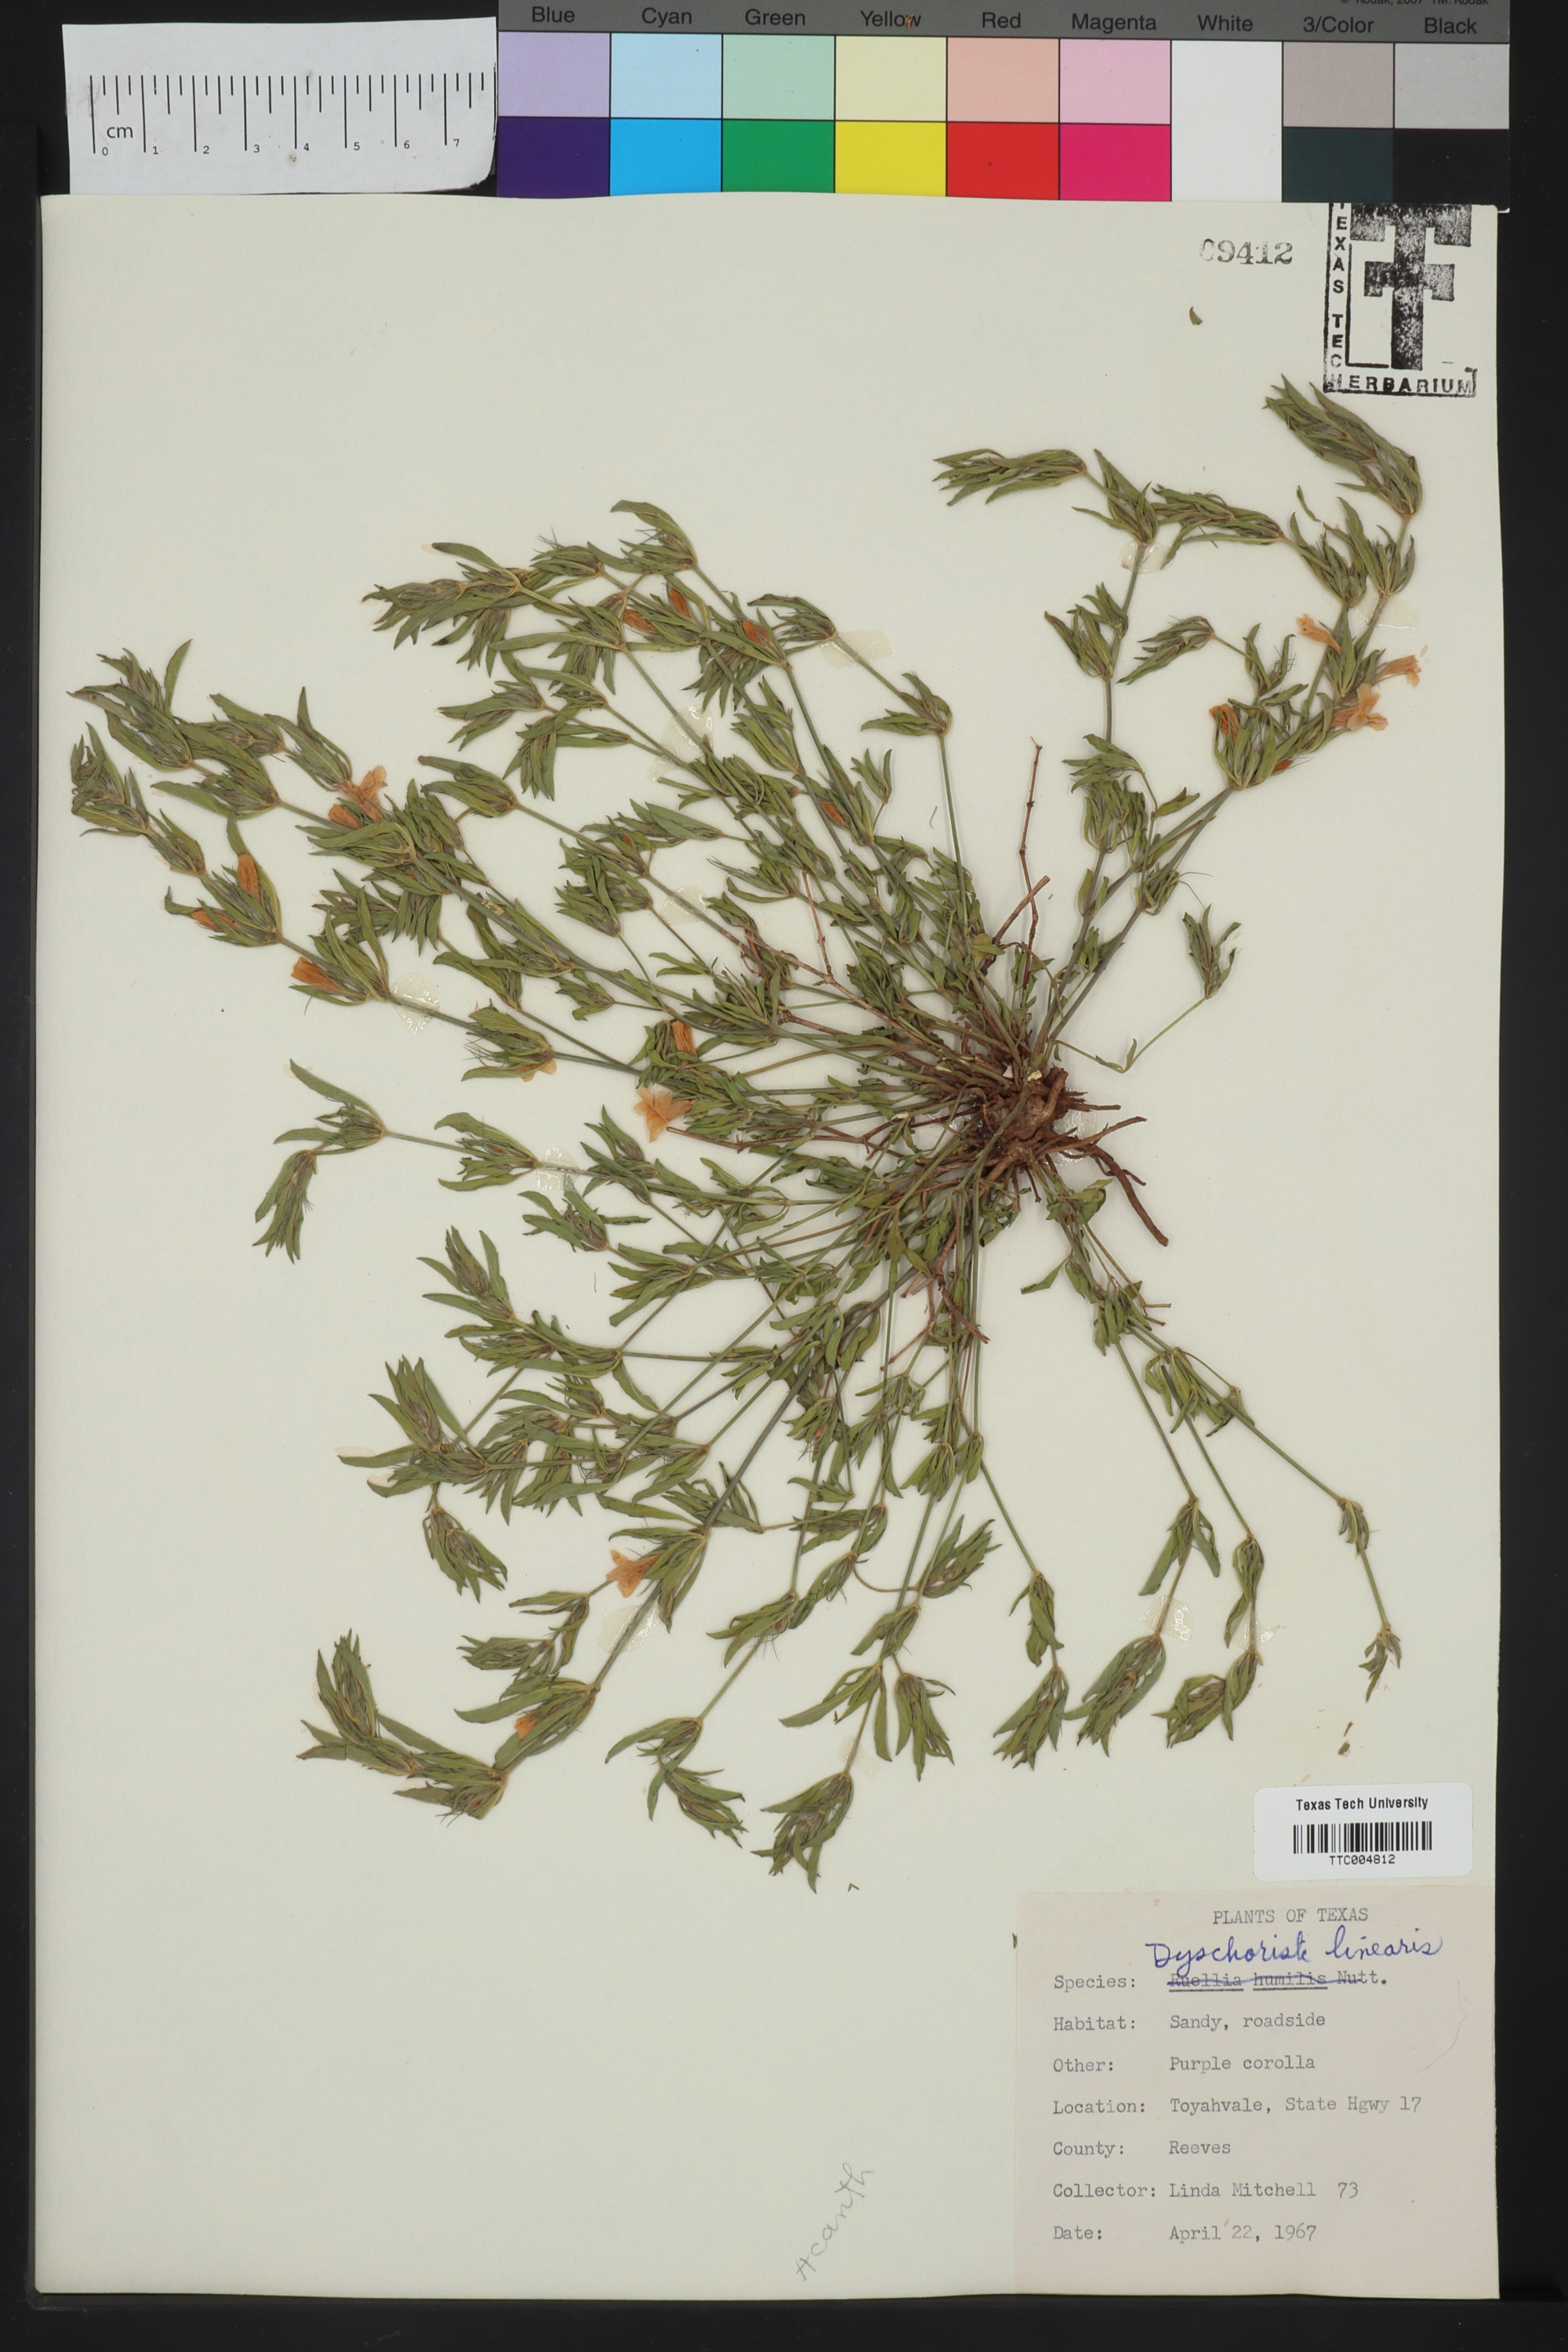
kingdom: Plantae
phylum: Tracheophyta
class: Magnoliopsida
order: Lamiales
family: Acanthaceae
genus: Dyschoriste
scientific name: Dyschoriste linearis
